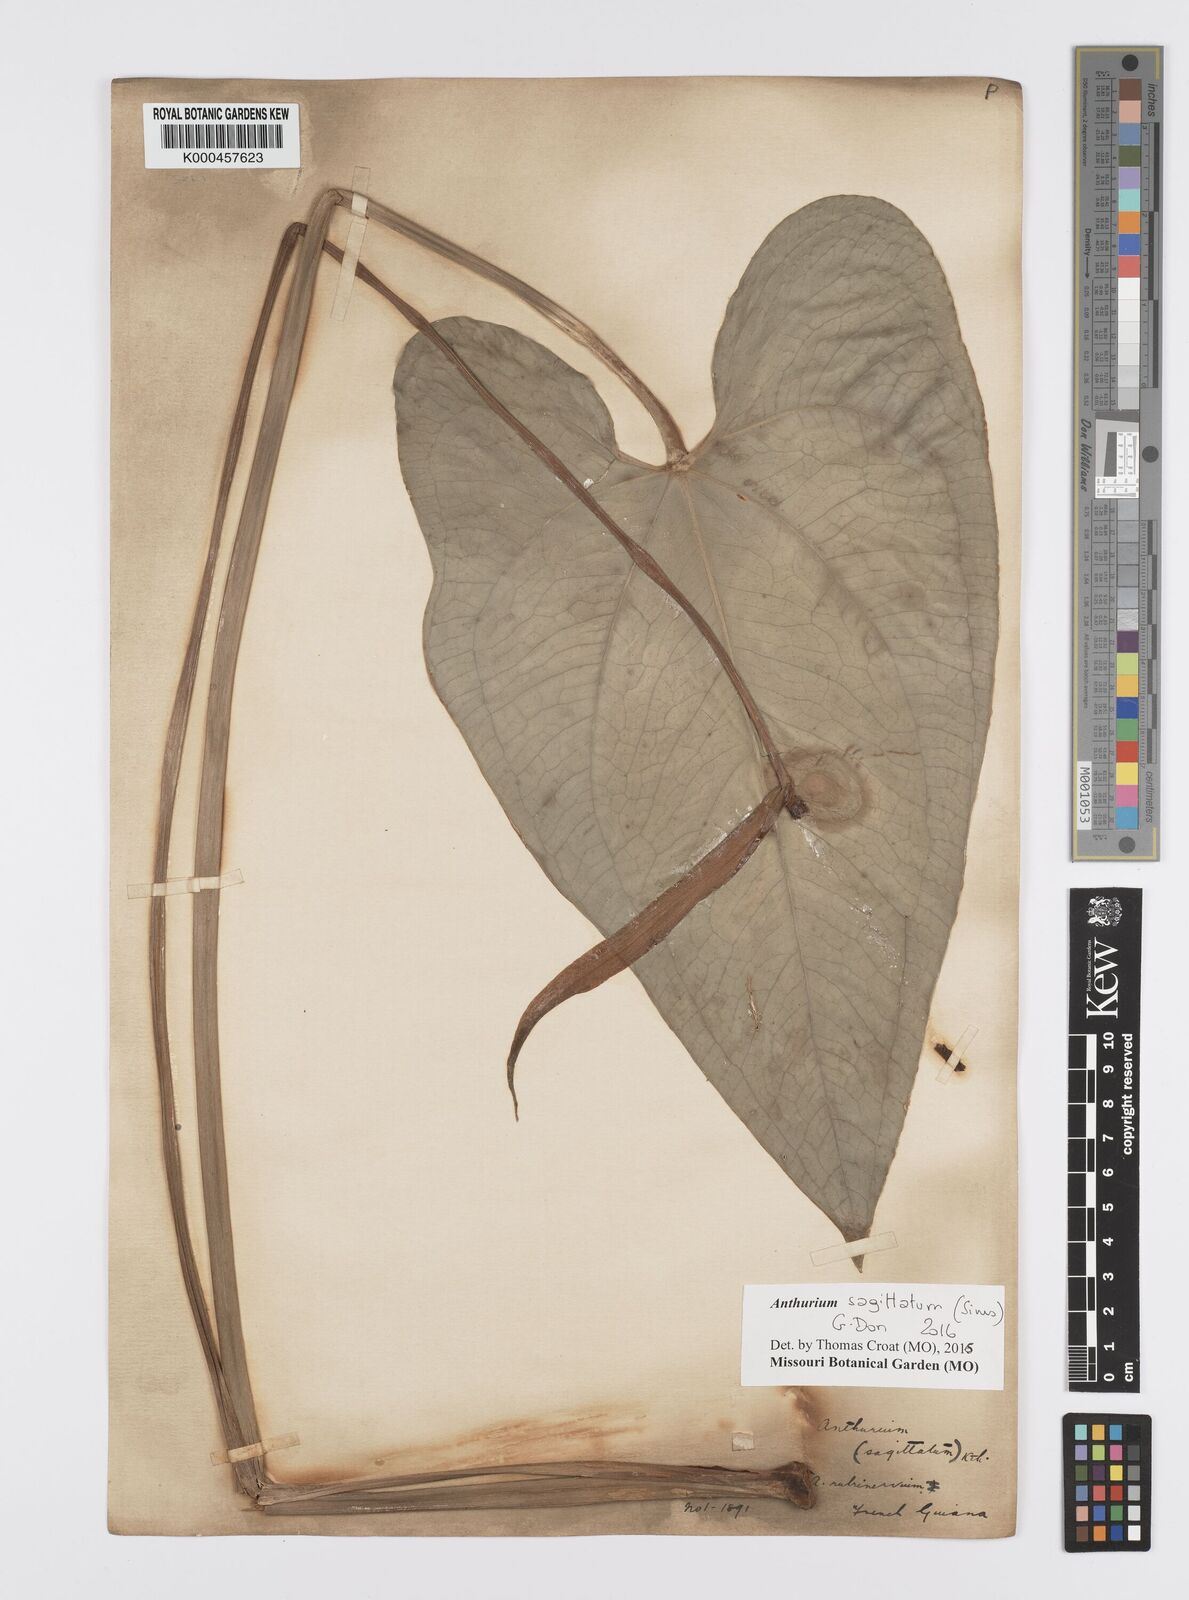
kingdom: Plantae
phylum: Tracheophyta
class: Liliopsida
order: Alismatales
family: Araceae
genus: Anthurium
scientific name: Anthurium sagittatum
